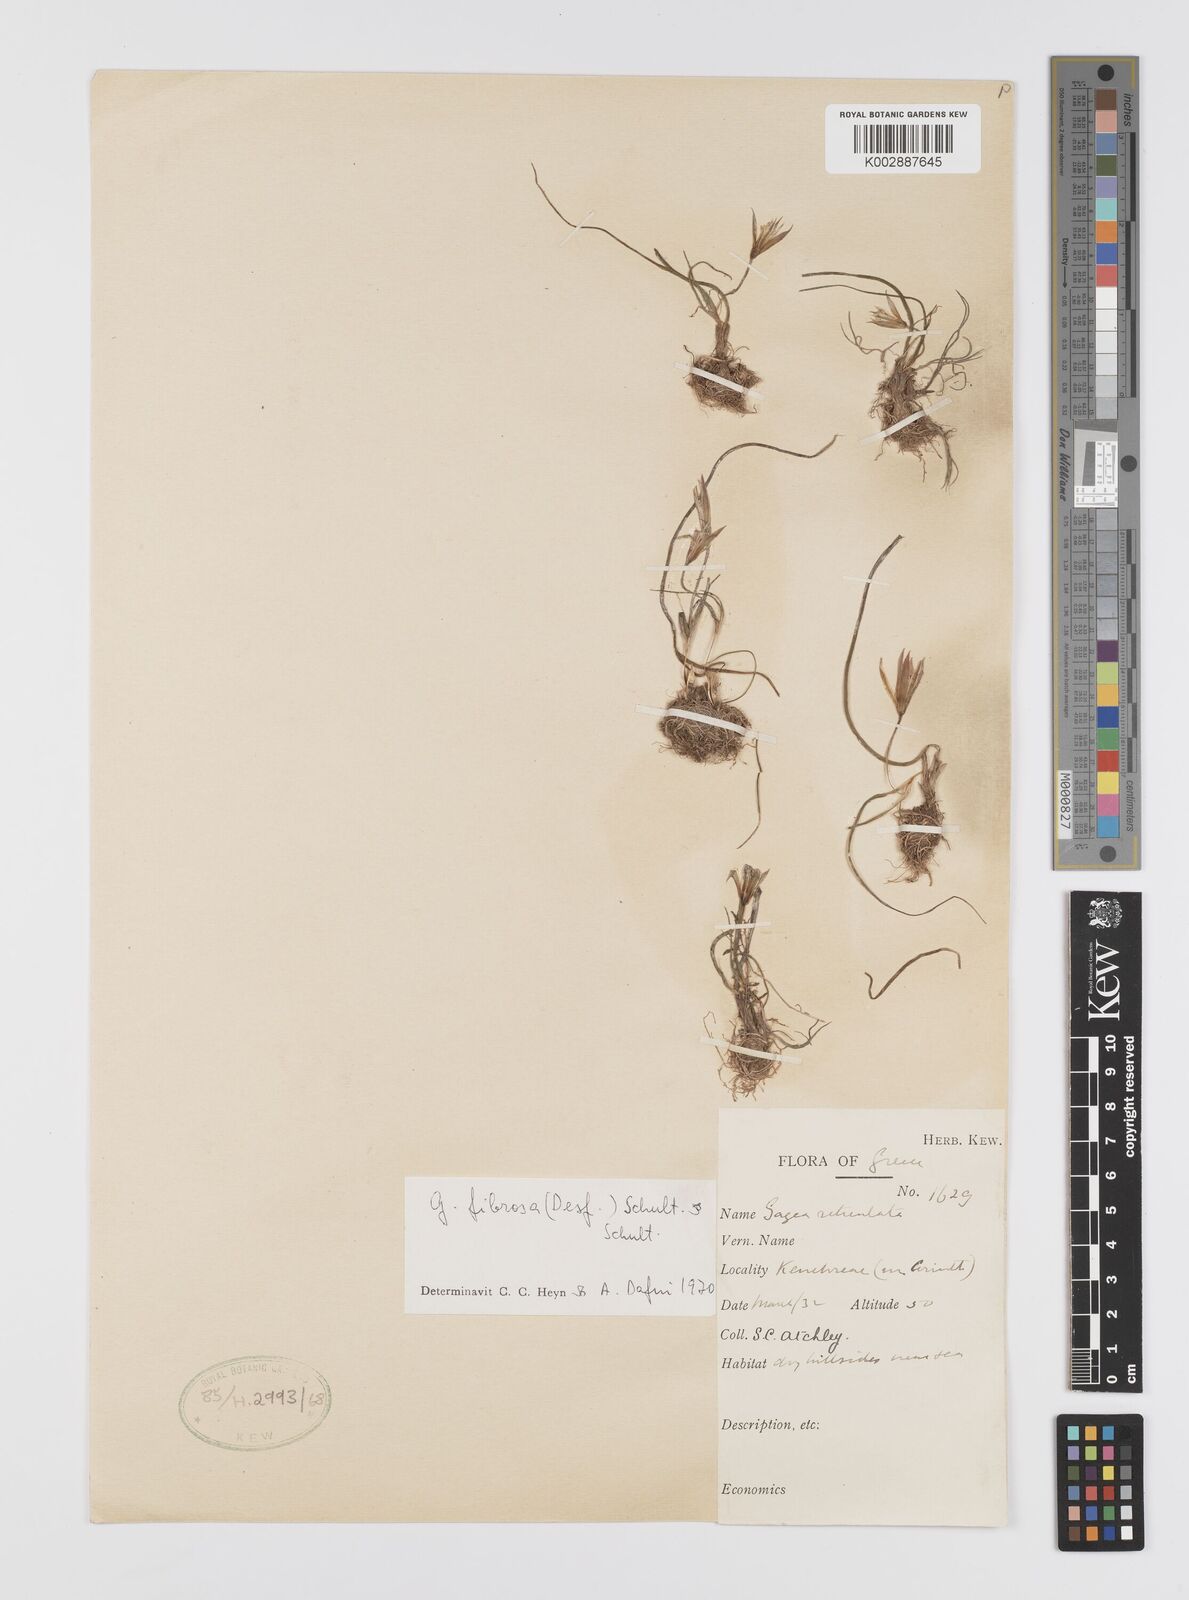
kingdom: Plantae
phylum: Tracheophyta
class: Liliopsida
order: Liliales
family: Liliaceae
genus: Gagea
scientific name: Gagea fibrosa
